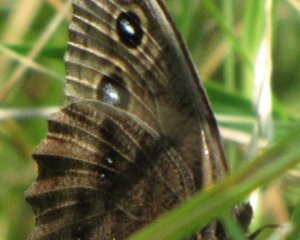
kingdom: Animalia
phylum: Arthropoda
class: Insecta
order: Lepidoptera
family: Nymphalidae
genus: Cercyonis
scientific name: Cercyonis pegala
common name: Common Wood-Nymph
